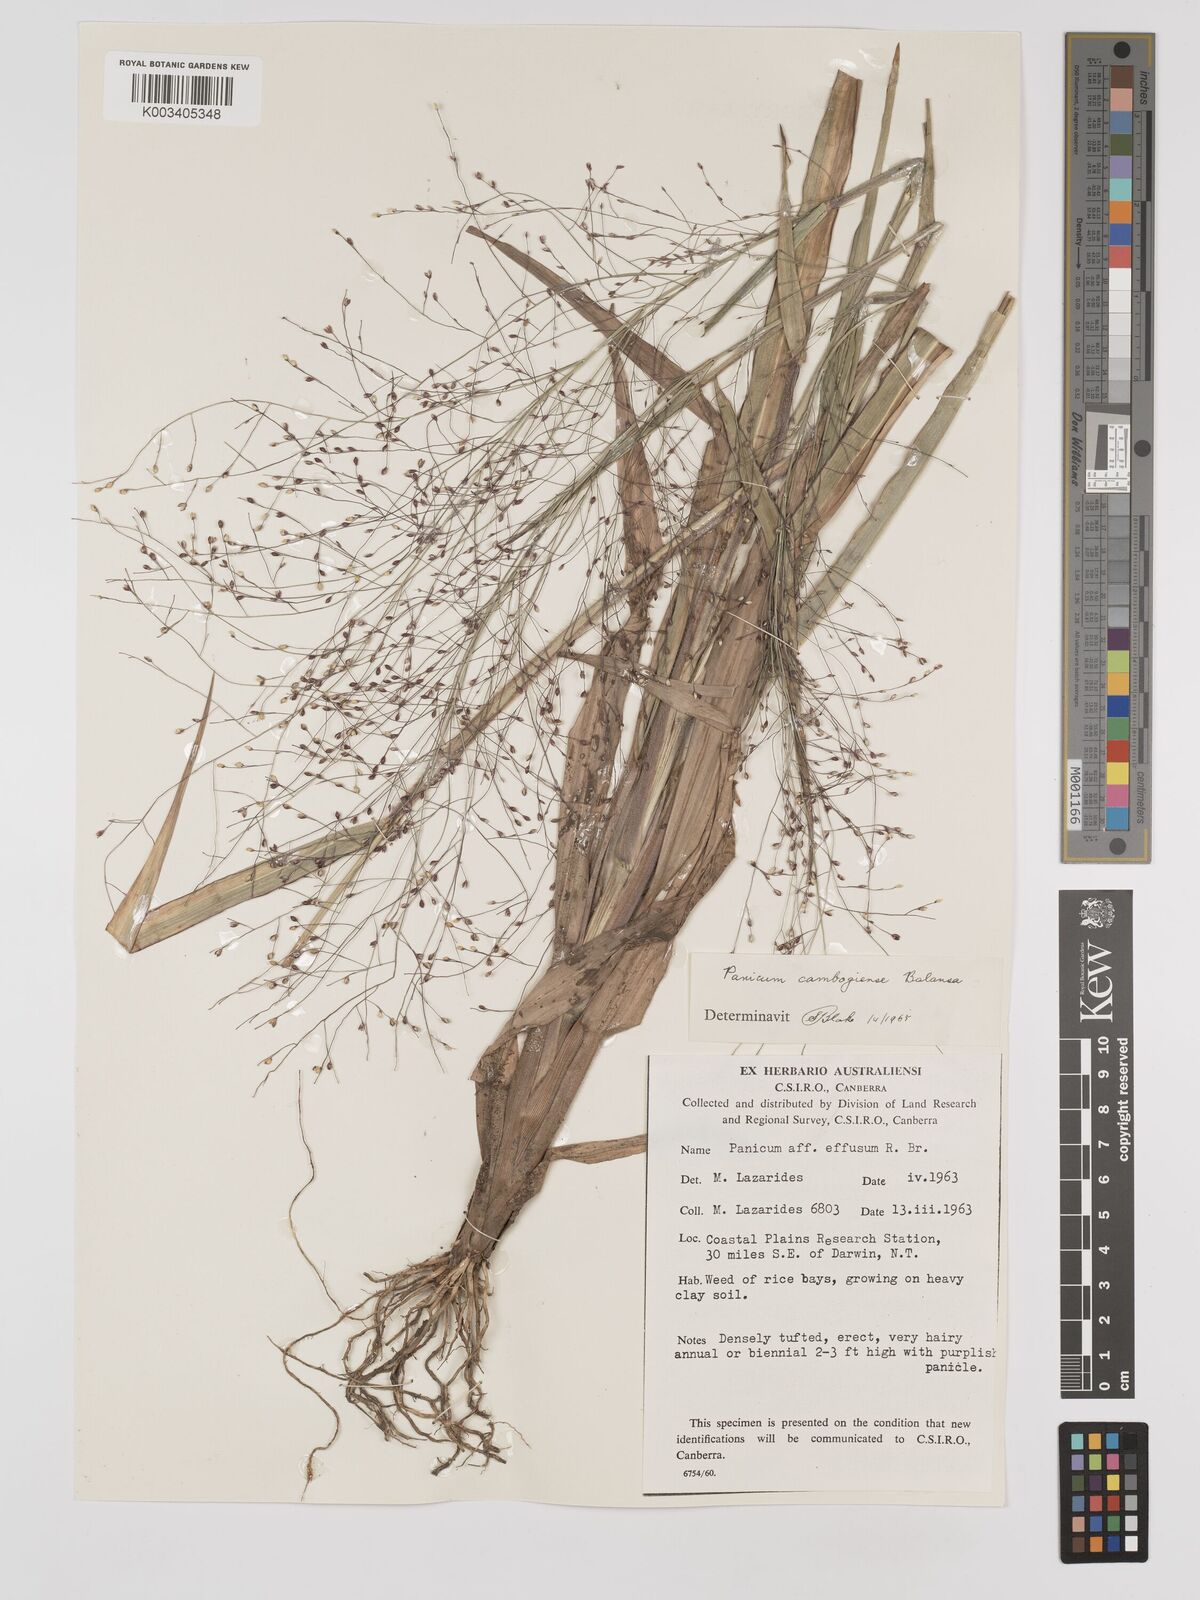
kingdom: Plantae
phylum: Tracheophyta
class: Liliopsida
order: Poales
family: Poaceae
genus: Panicum
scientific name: Panicum luzonense
